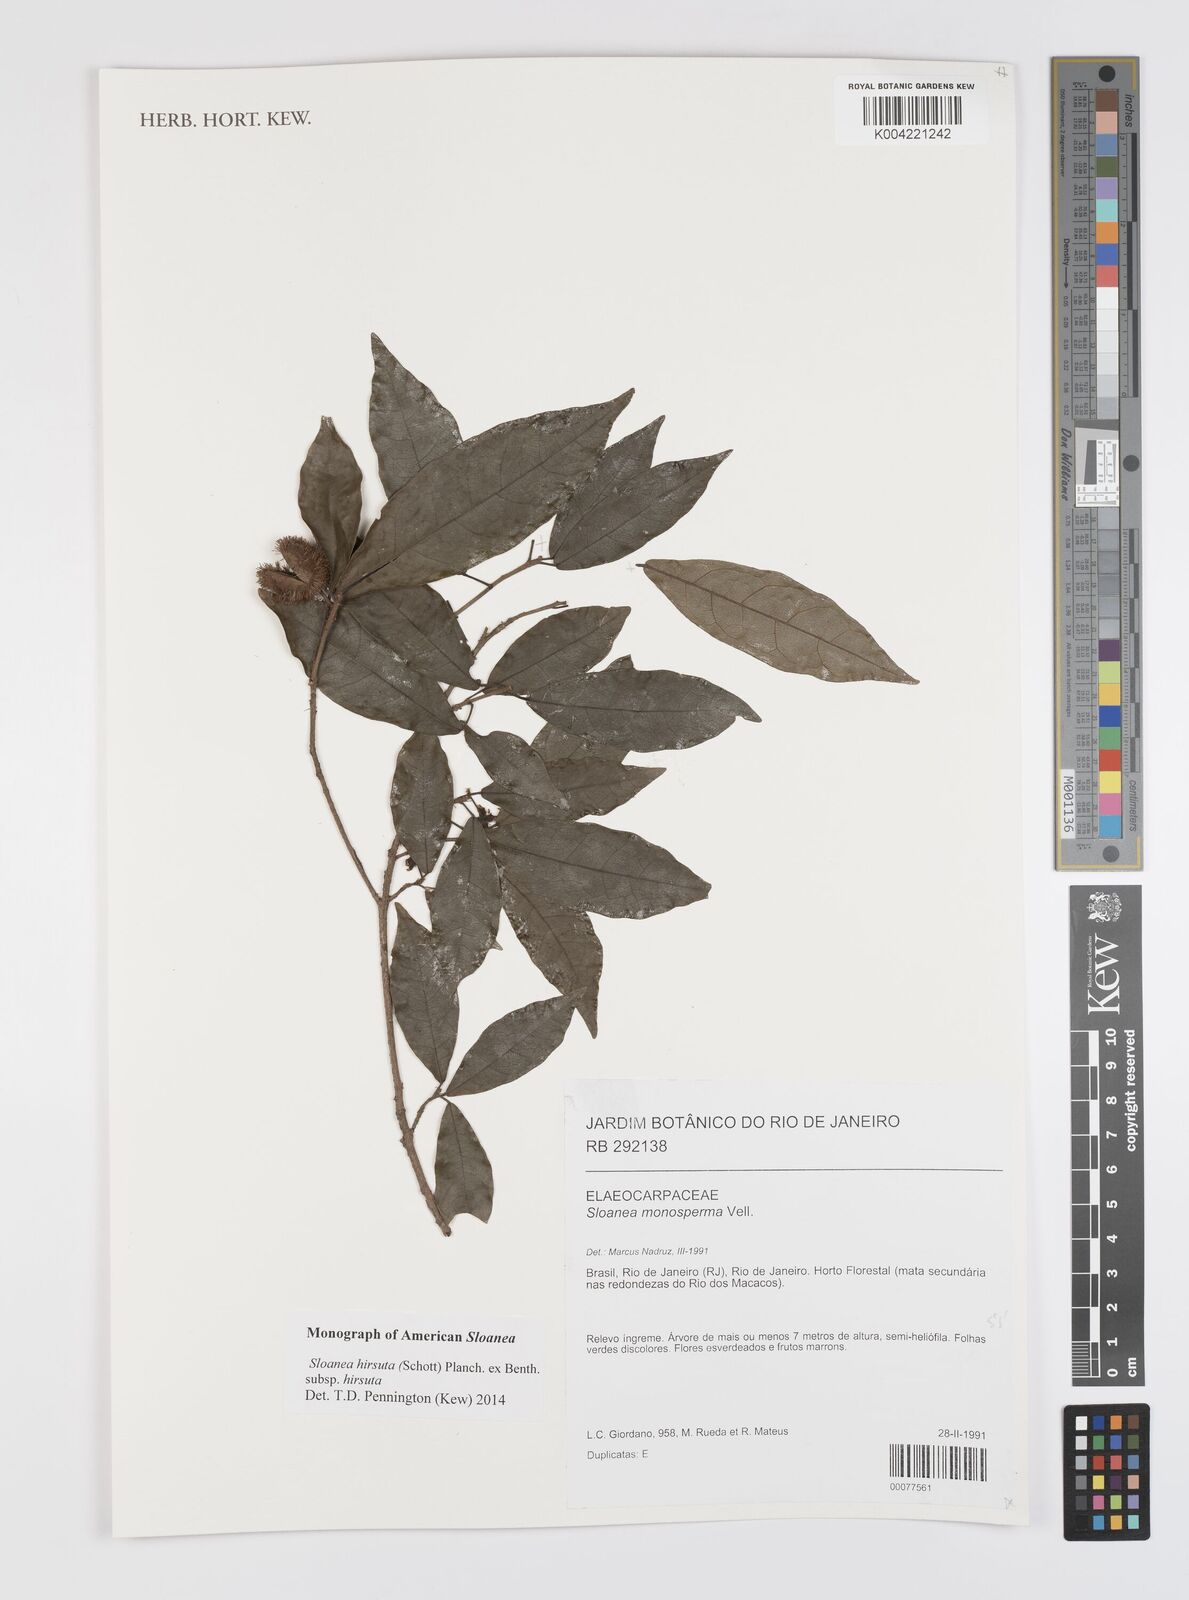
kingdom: Plantae
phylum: Tracheophyta
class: Magnoliopsida
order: Oxalidales
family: Elaeocarpaceae
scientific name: Elaeocarpaceae
